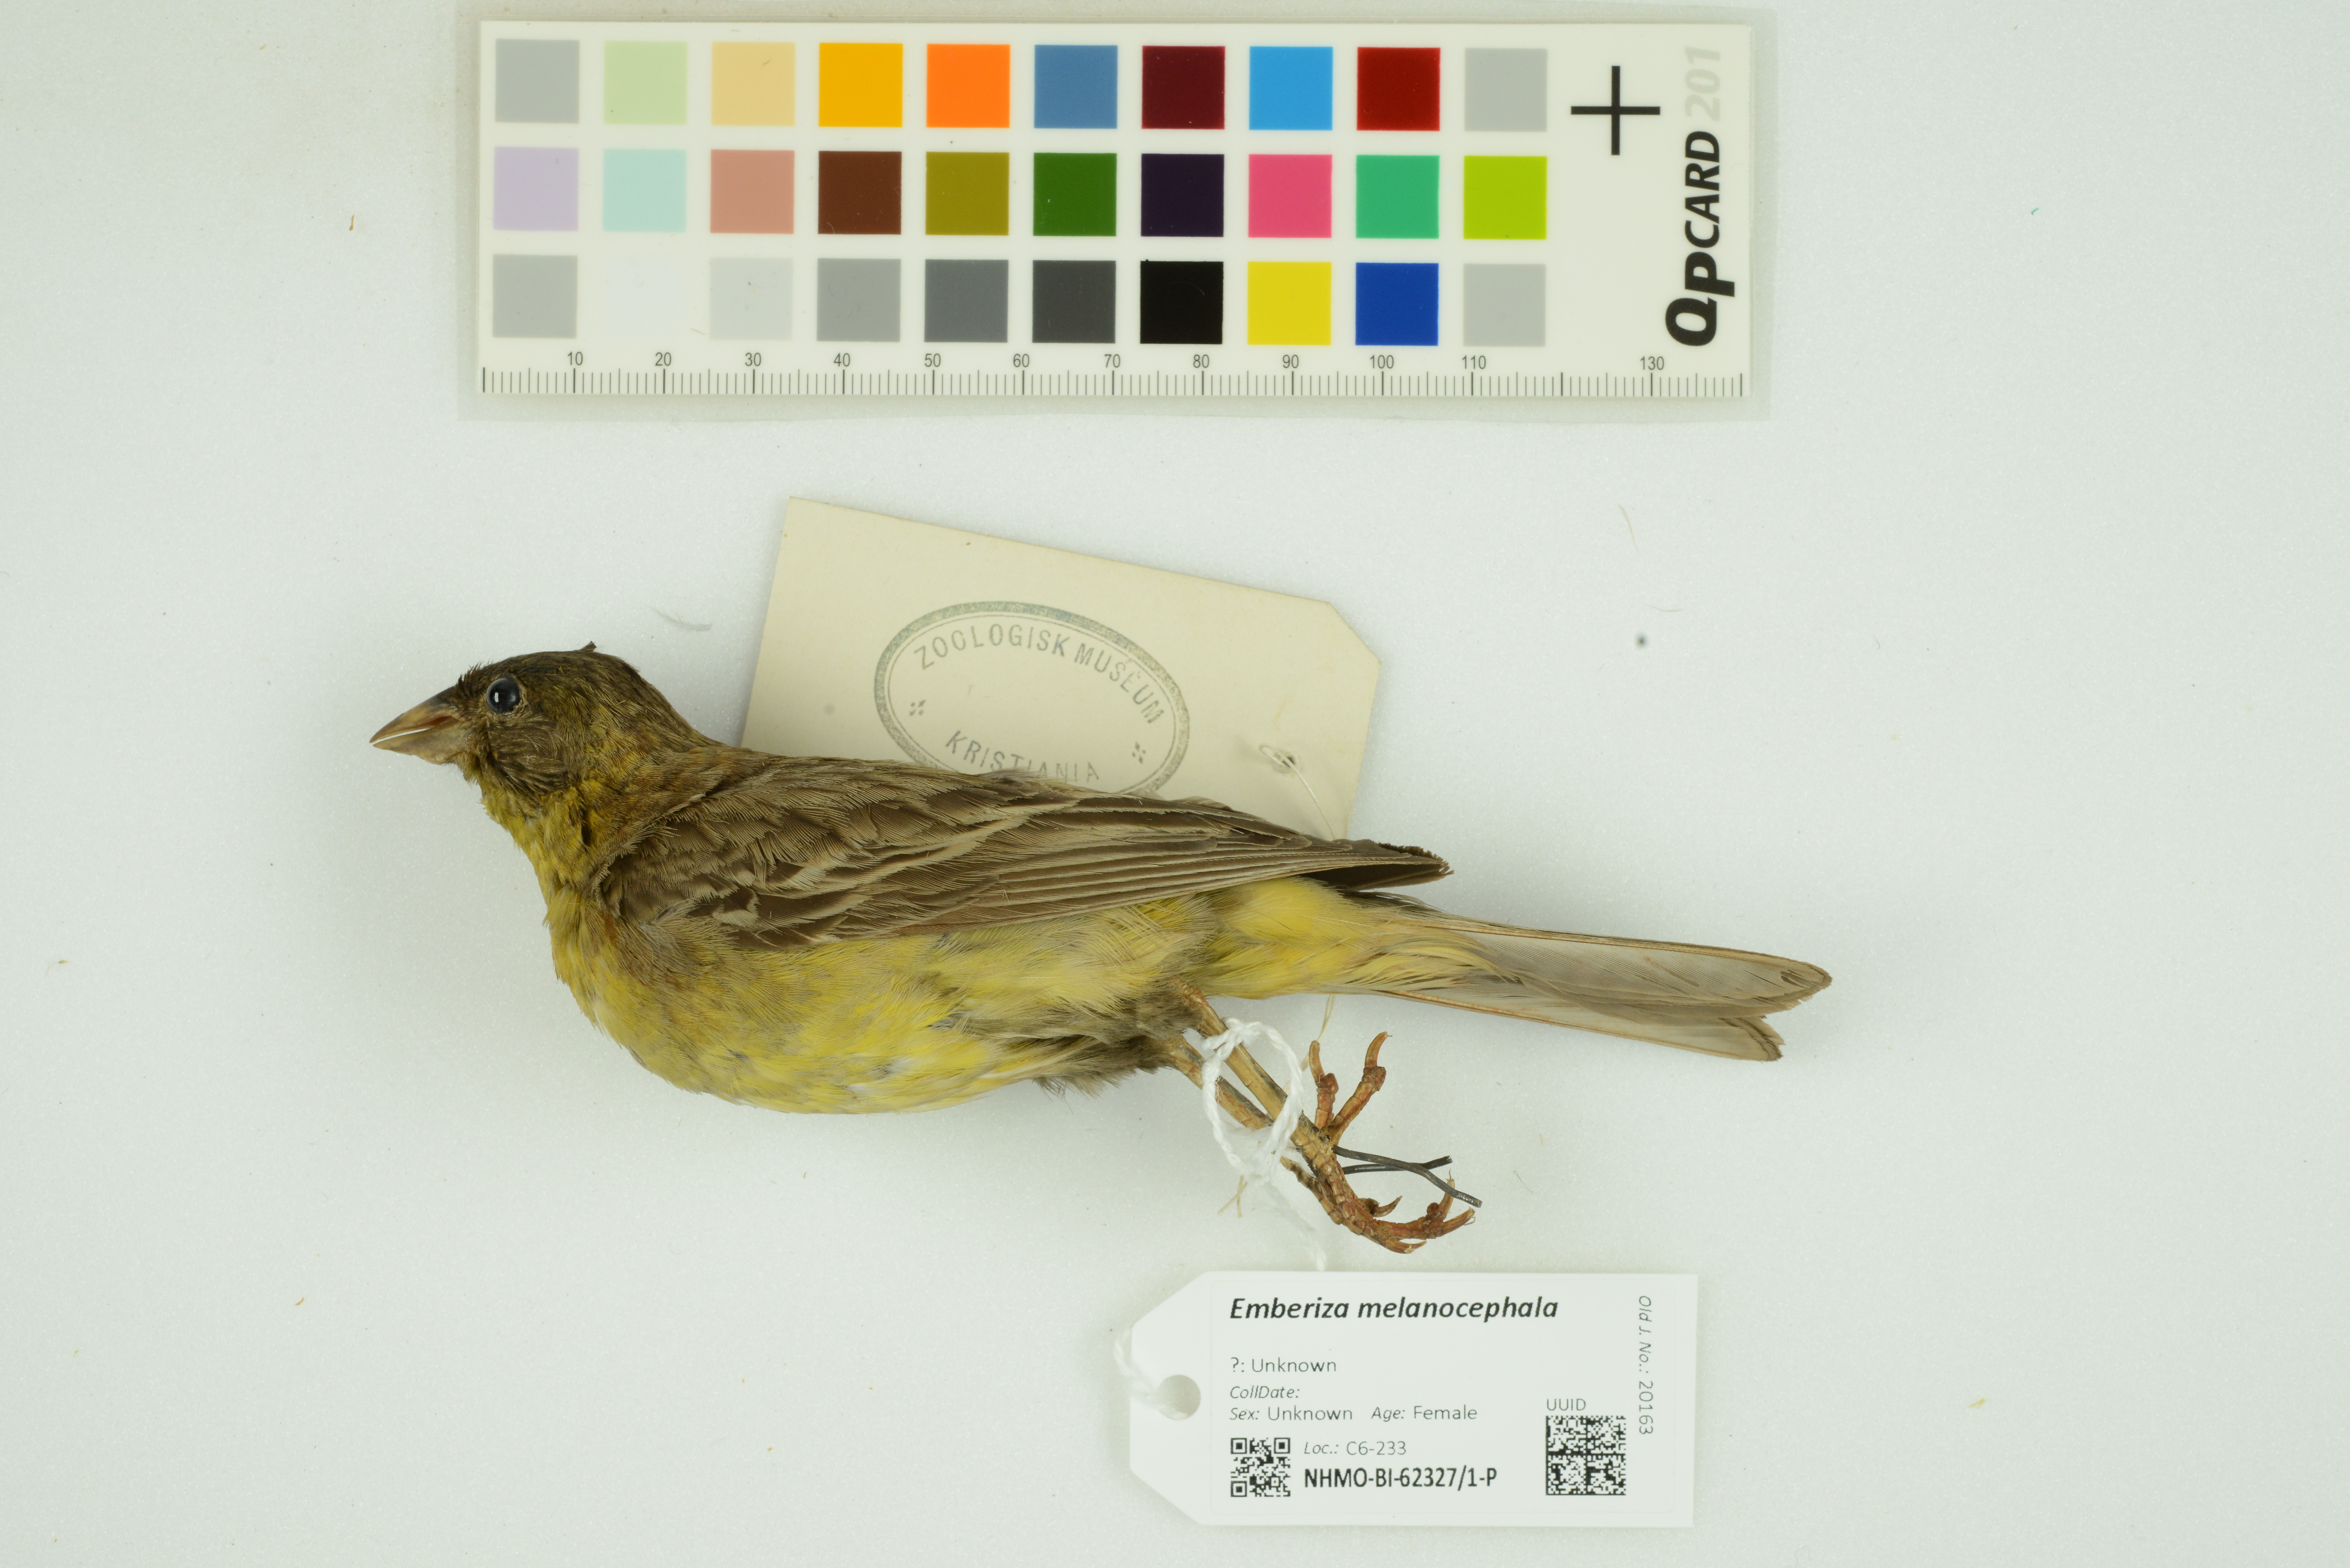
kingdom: Animalia
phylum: Chordata
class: Aves
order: Passeriformes
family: Emberizidae
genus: Emberiza
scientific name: Emberiza melanocephala
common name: Black-headed bunting
